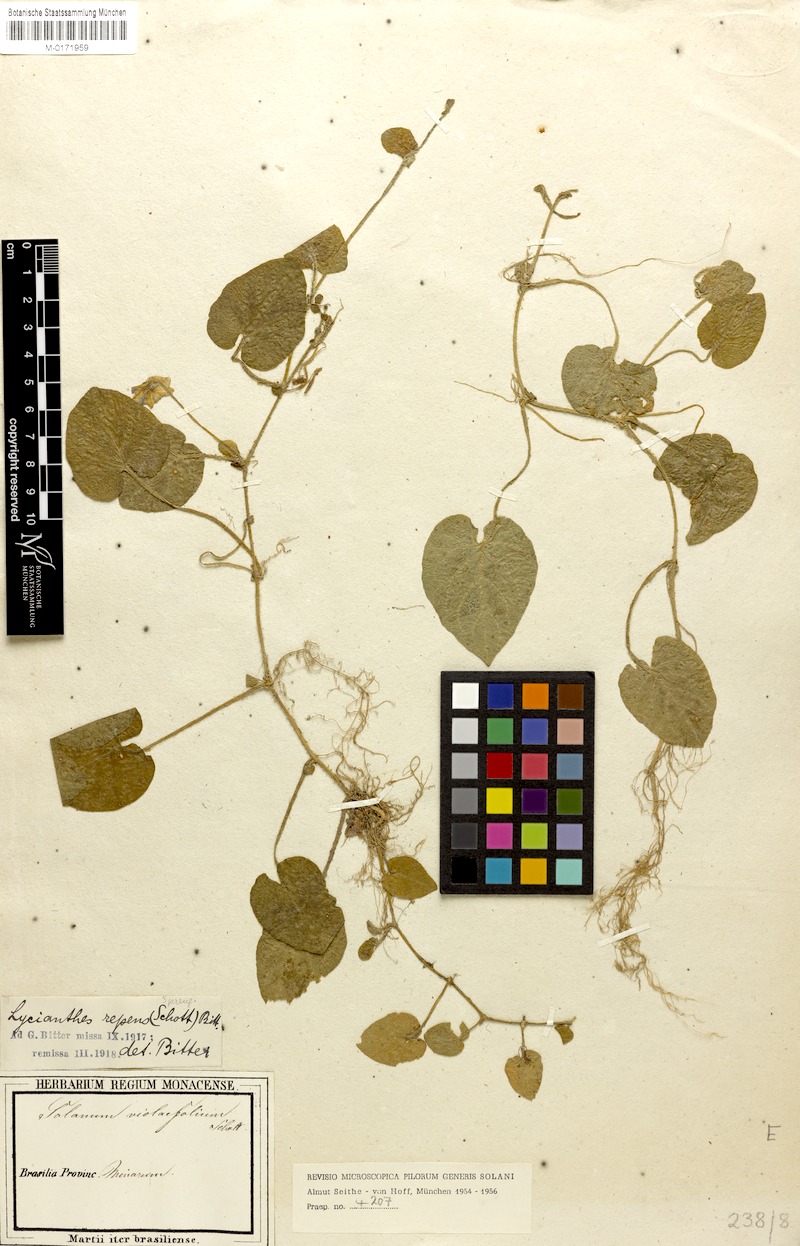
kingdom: Plantae
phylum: Tracheophyta
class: Magnoliopsida
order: Solanales
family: Solanaceae
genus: Lycianthes
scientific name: Lycianthes repens
